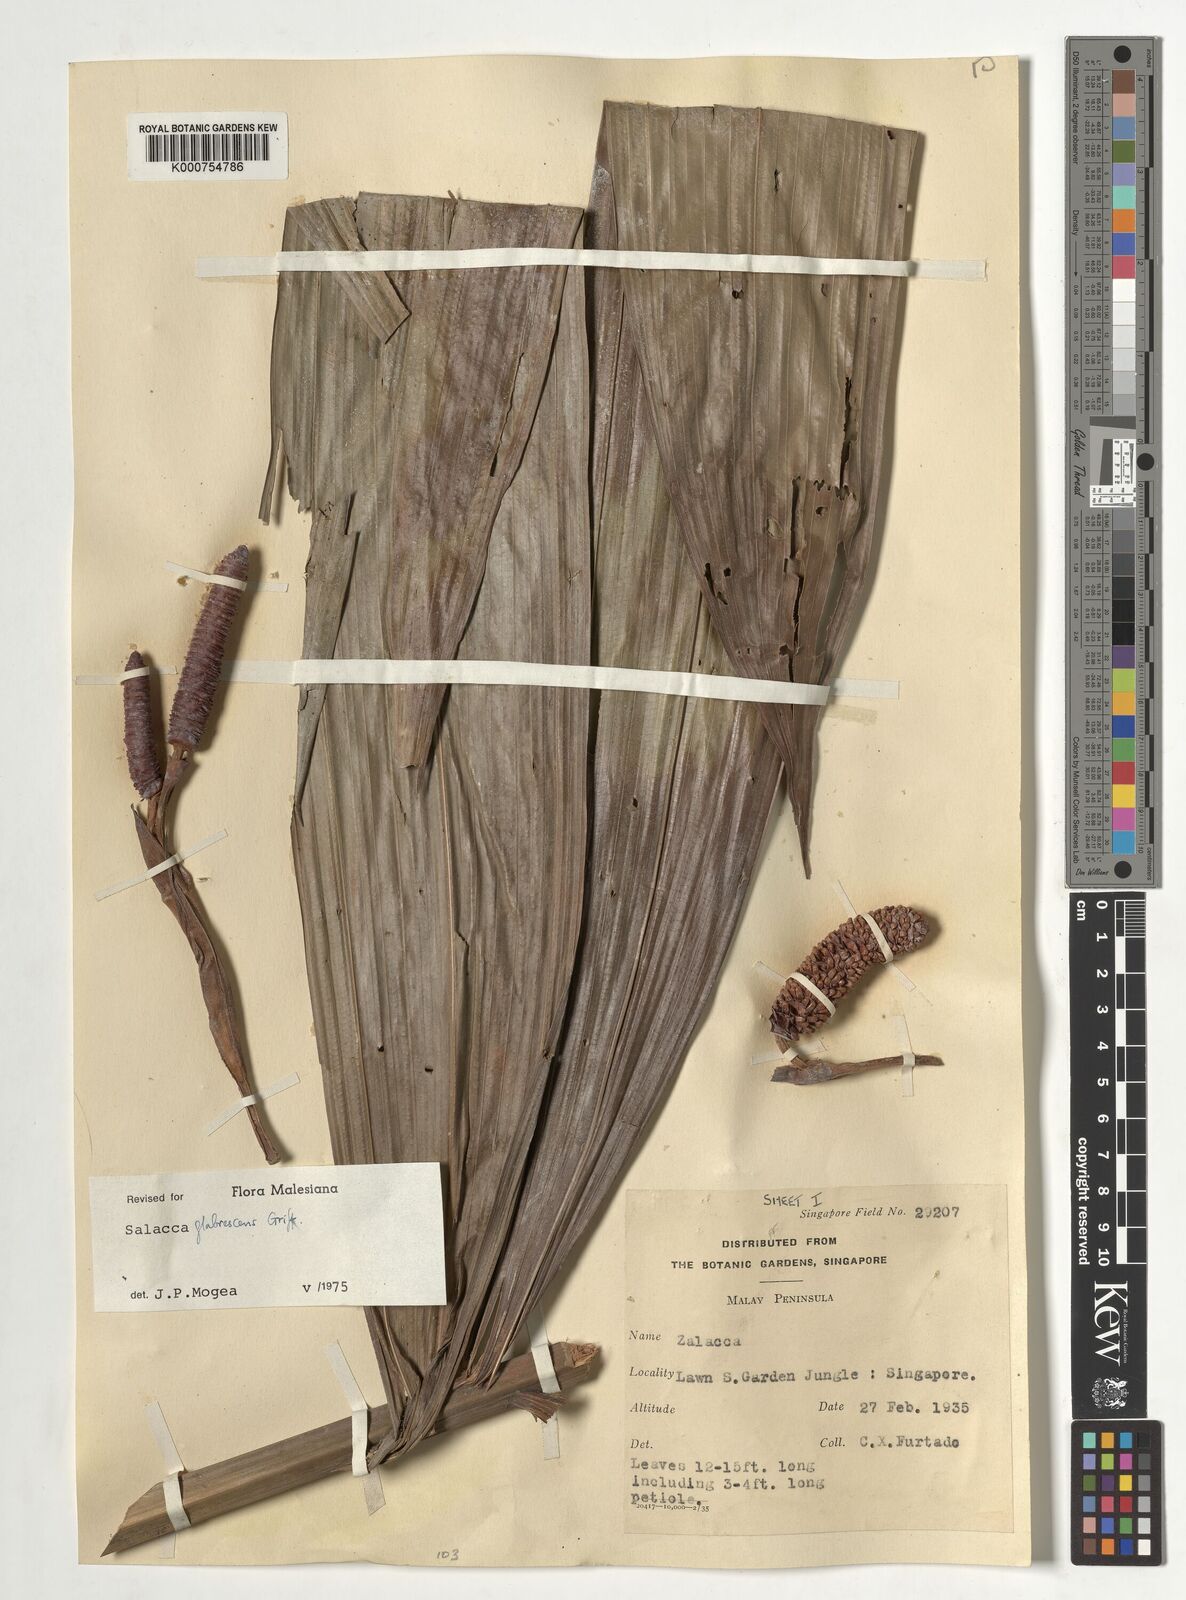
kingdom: Plantae
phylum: Tracheophyta
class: Liliopsida
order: Arecales
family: Arecaceae
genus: Salacca
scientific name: Salacca glabrescens
